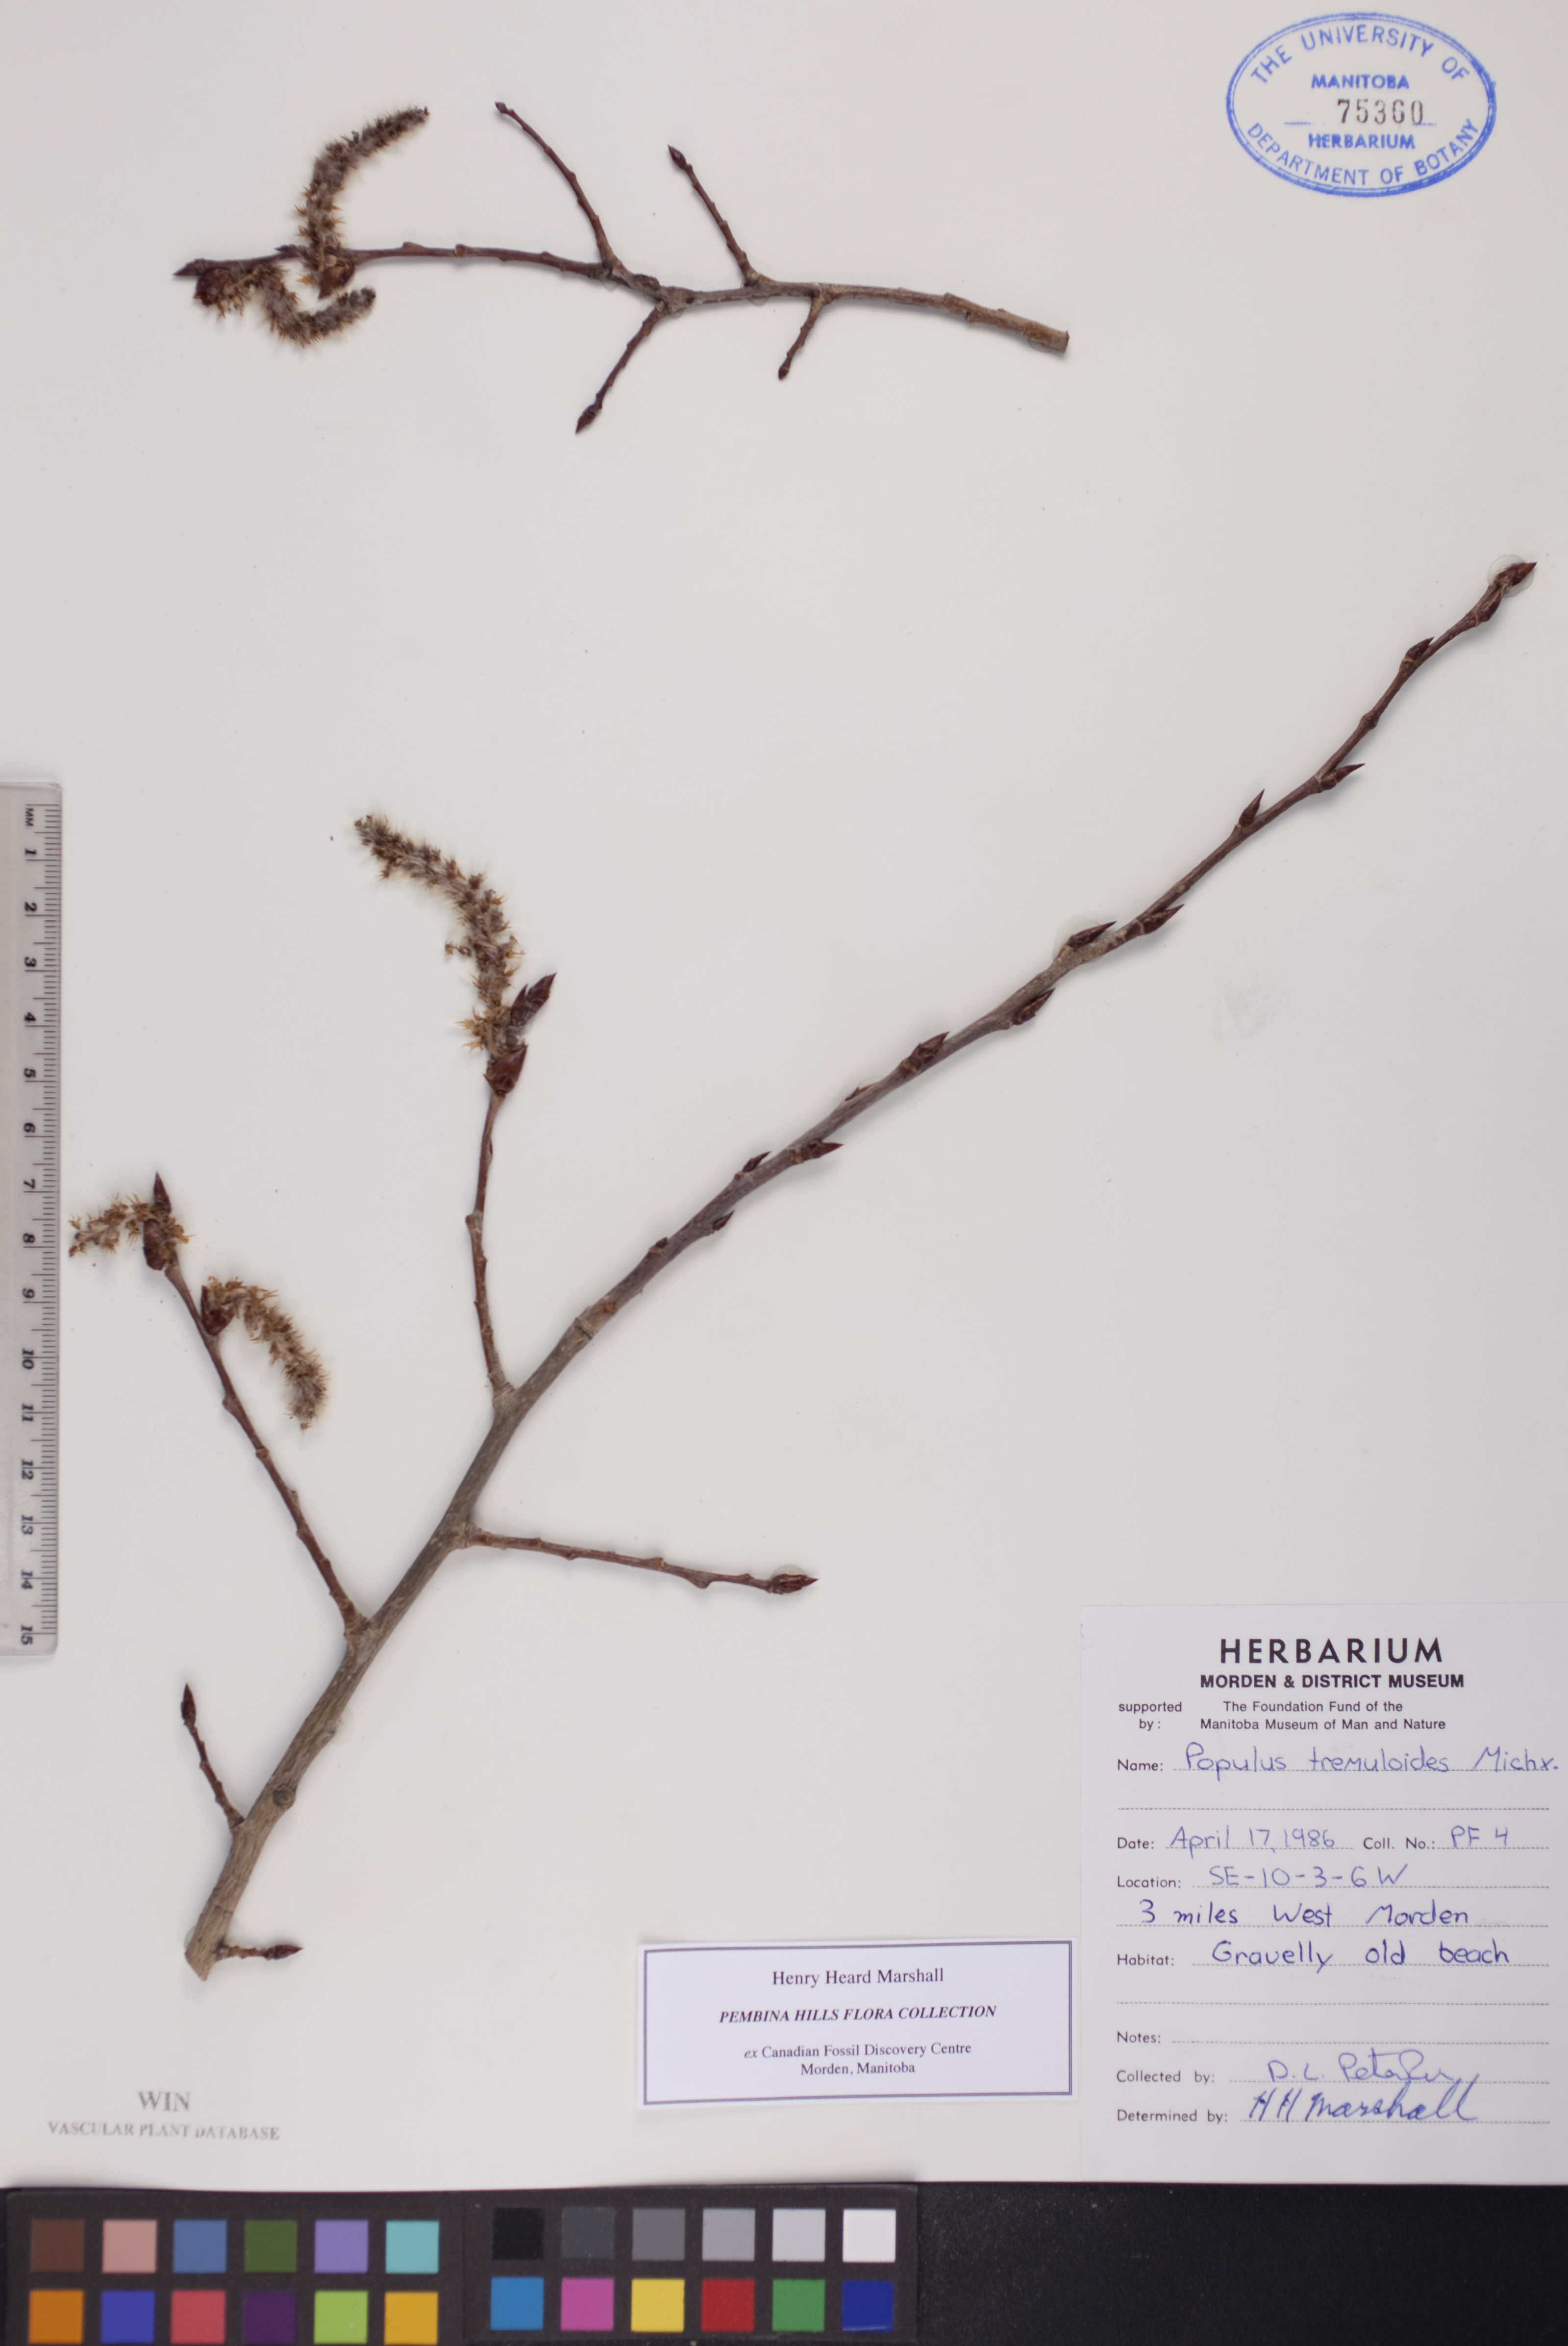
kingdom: Plantae
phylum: Tracheophyta
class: Magnoliopsida
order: Malpighiales
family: Salicaceae
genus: Populus
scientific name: Populus tremuloides
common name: Quaking aspen
